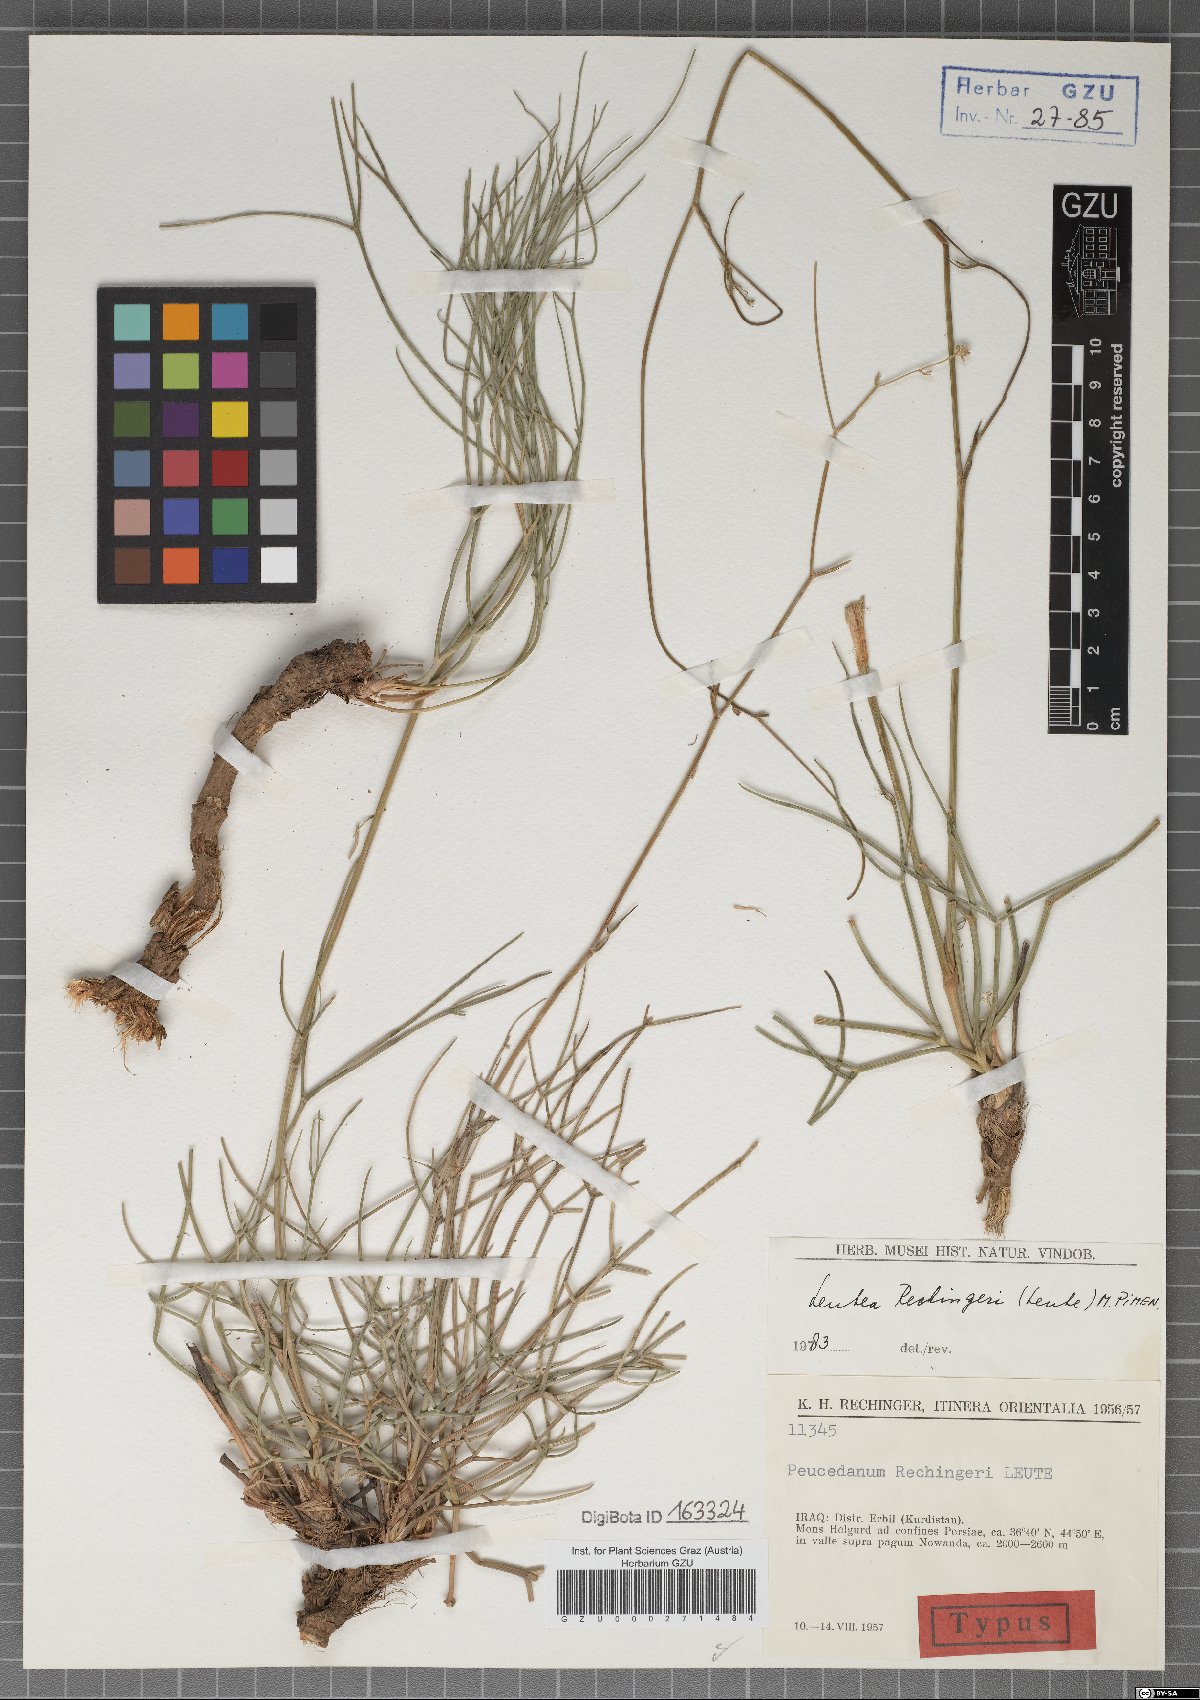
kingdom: Plantae
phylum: Tracheophyta
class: Magnoliopsida
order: Apiales
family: Apiaceae
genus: Leutea
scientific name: Leutea rechingeri
